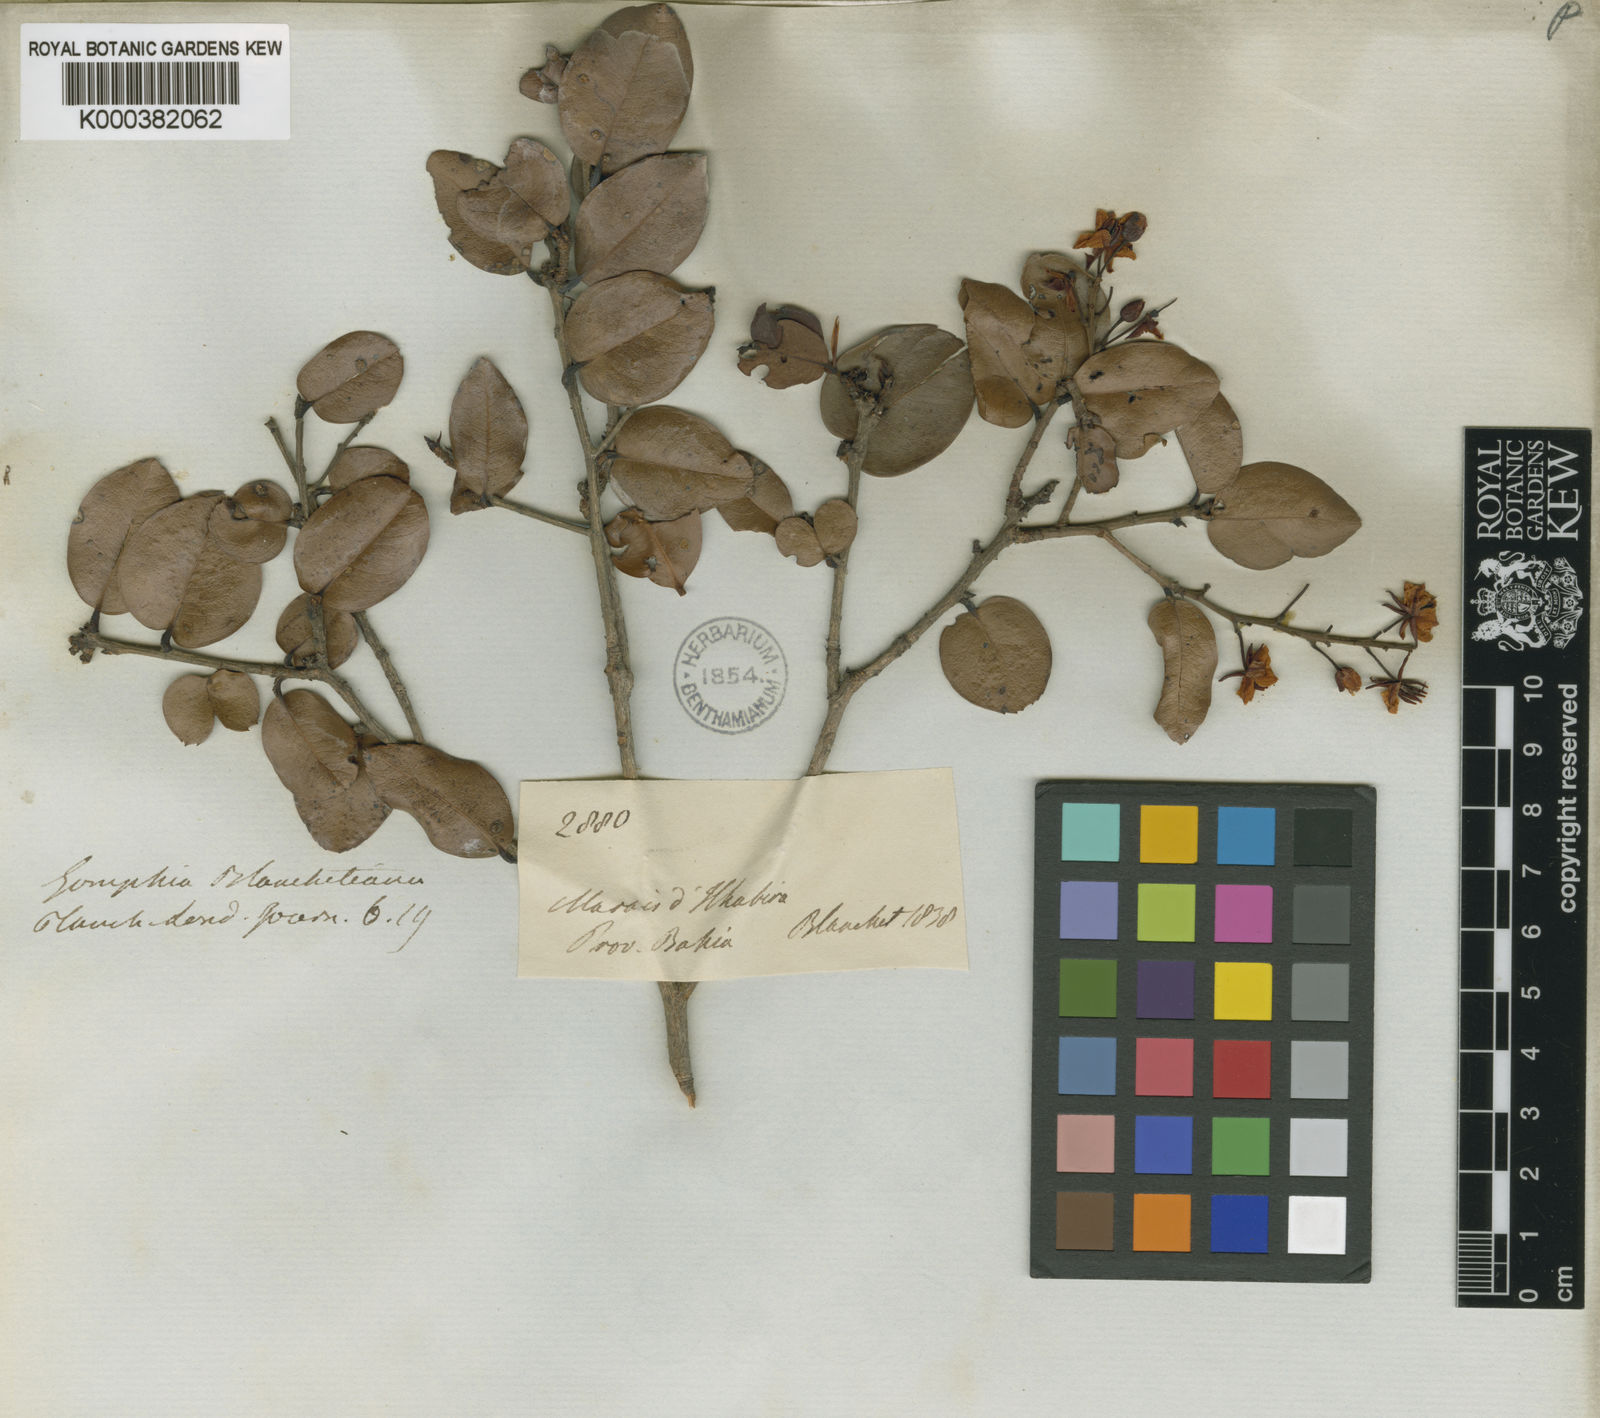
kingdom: Plantae
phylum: Tracheophyta
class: Magnoliopsida
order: Malpighiales
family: Ochnaceae
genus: Ouratea
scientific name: Ouratea blanchetiana
